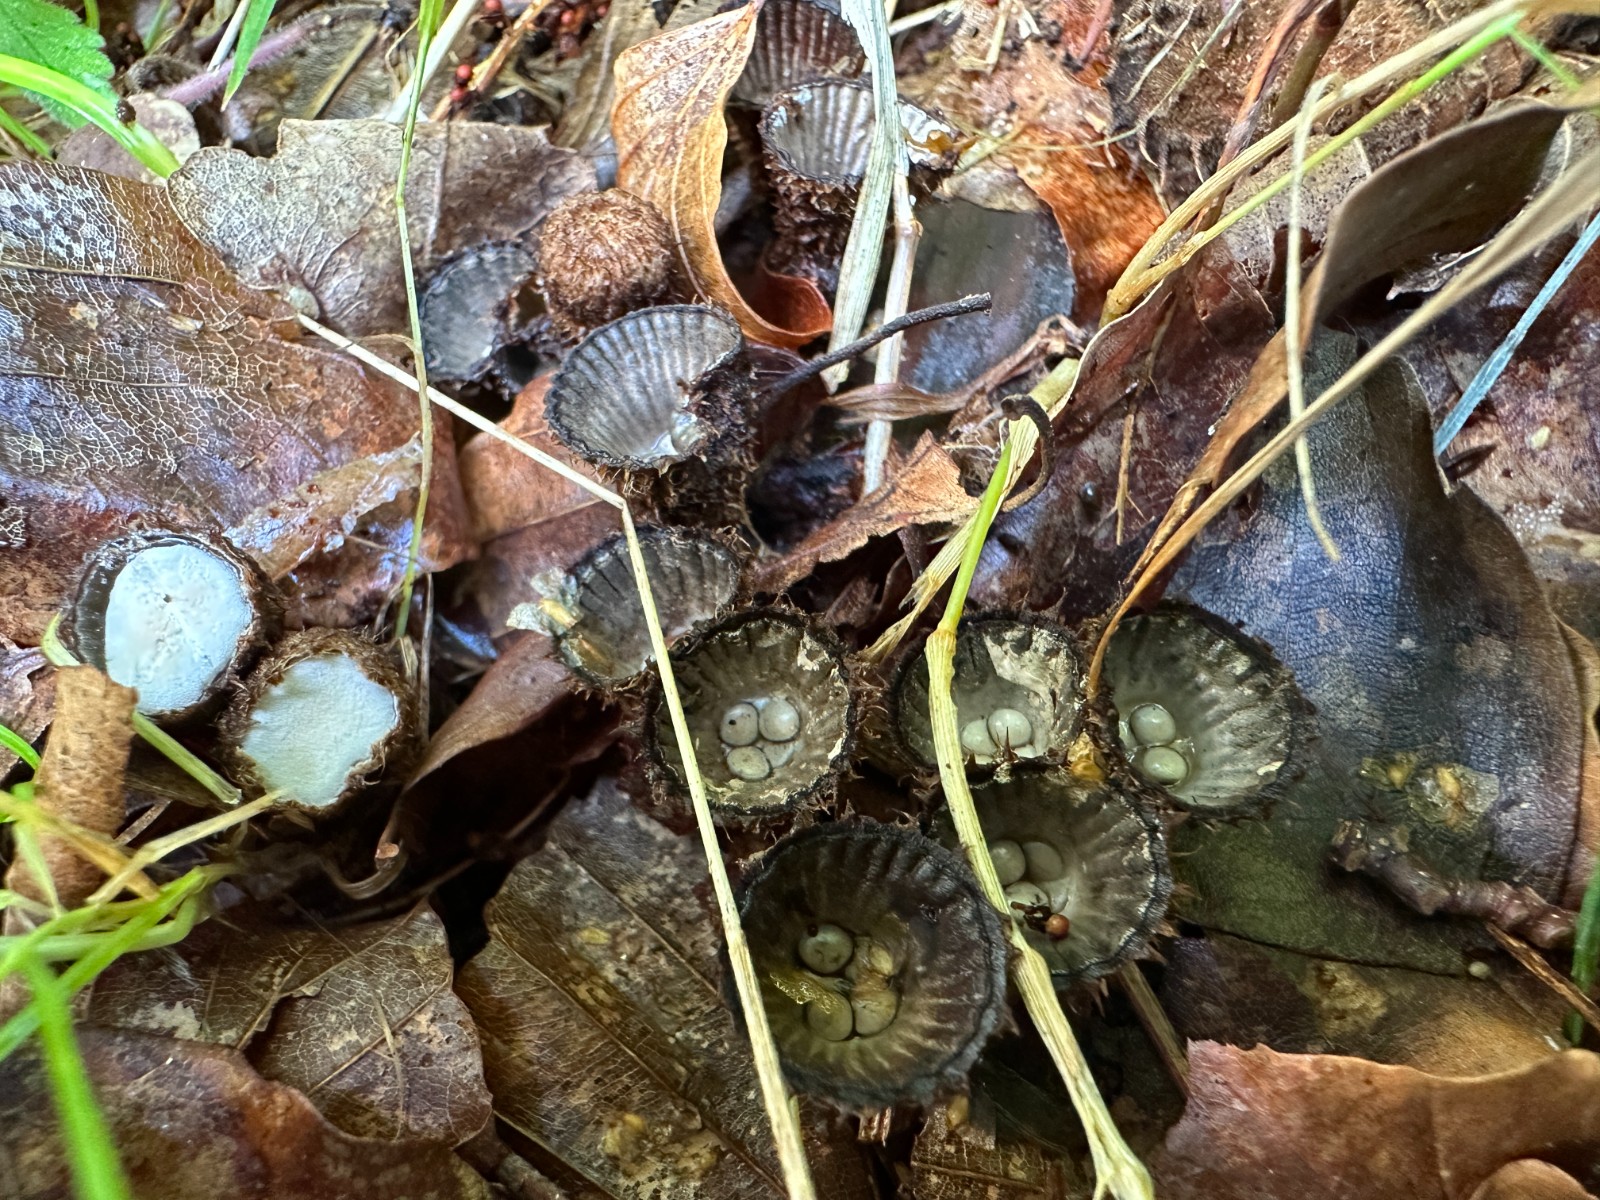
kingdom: Fungi
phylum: Basidiomycota
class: Agaricomycetes
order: Agaricales
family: Agaricaceae
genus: Cyathus
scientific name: Cyathus striatus
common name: stribet redesvamp
